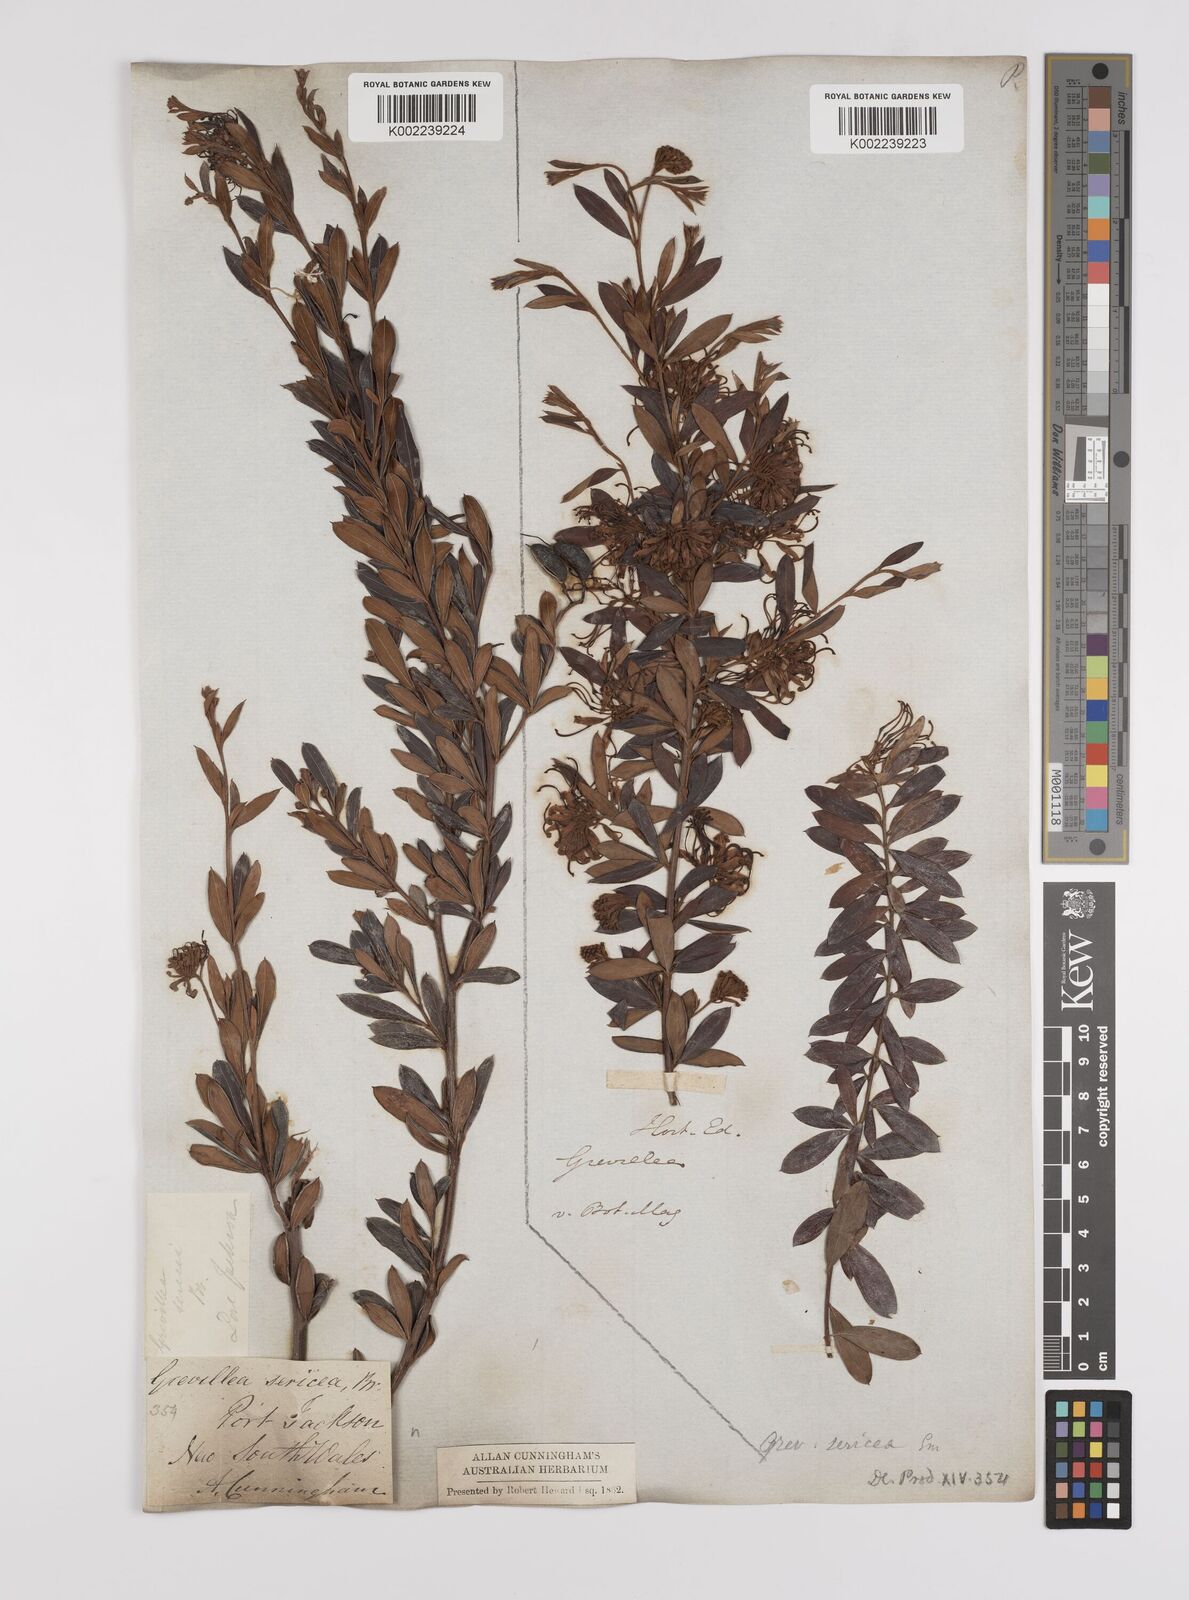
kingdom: Plantae
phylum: Tracheophyta
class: Magnoliopsida
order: Proteales
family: Proteaceae
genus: Grevillea
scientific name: Grevillea sericea
